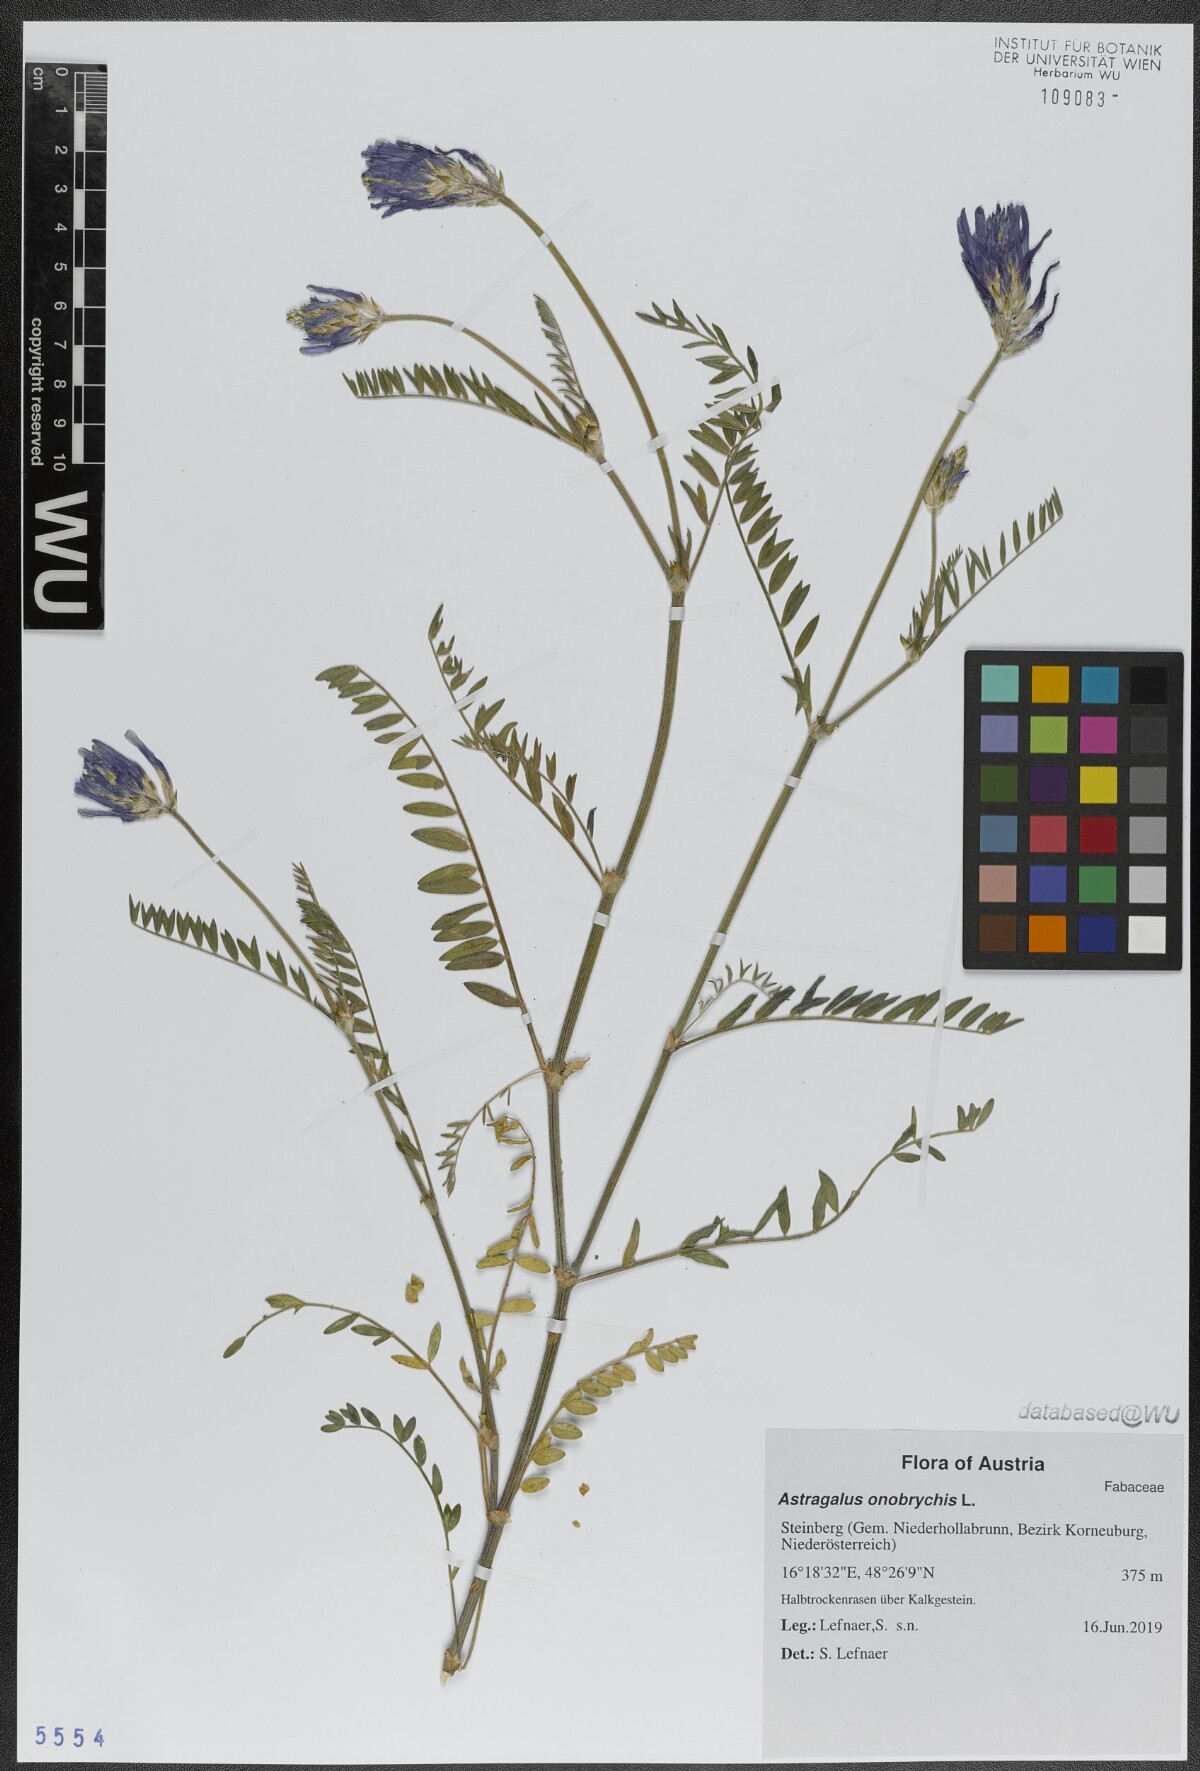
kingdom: Plantae
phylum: Tracheophyta
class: Magnoliopsida
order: Fabales
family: Fabaceae
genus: Astragalus
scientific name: Astragalus onobrychis
